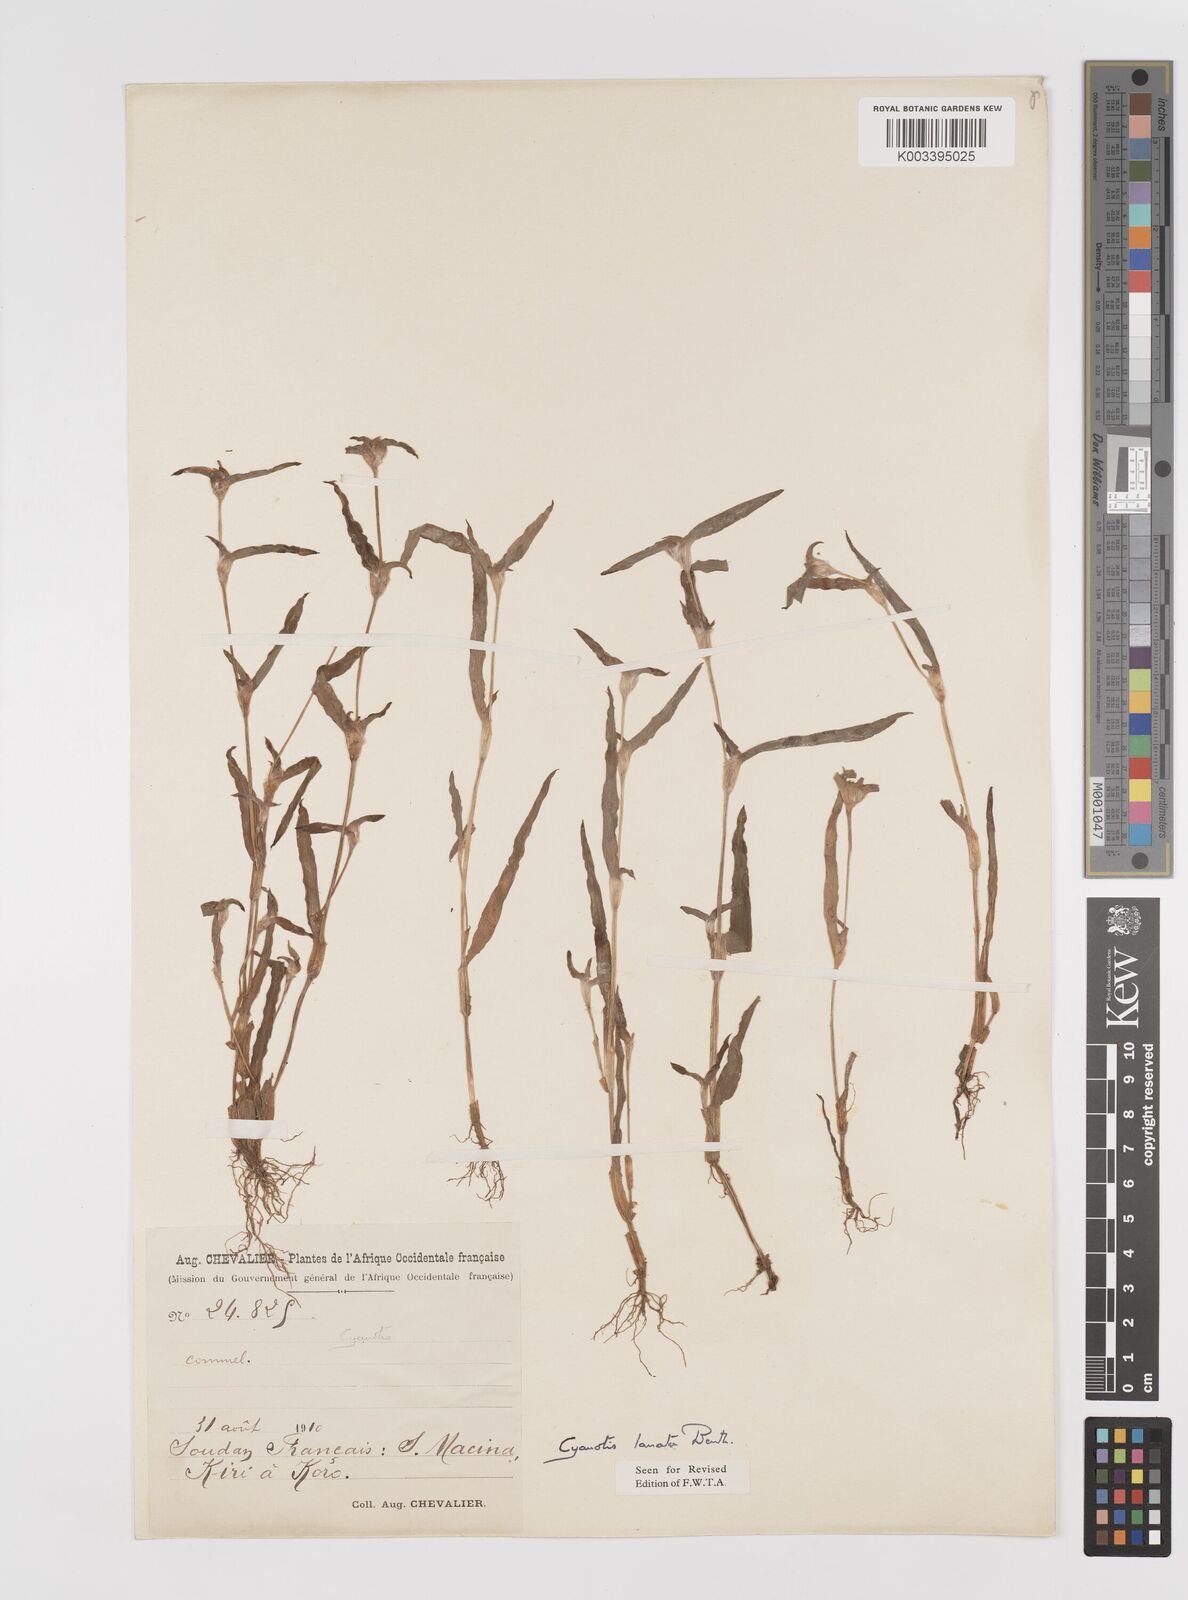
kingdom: Plantae
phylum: Tracheophyta
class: Liliopsida
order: Commelinales
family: Commelinaceae
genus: Cyanotis
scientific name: Cyanotis lanata
